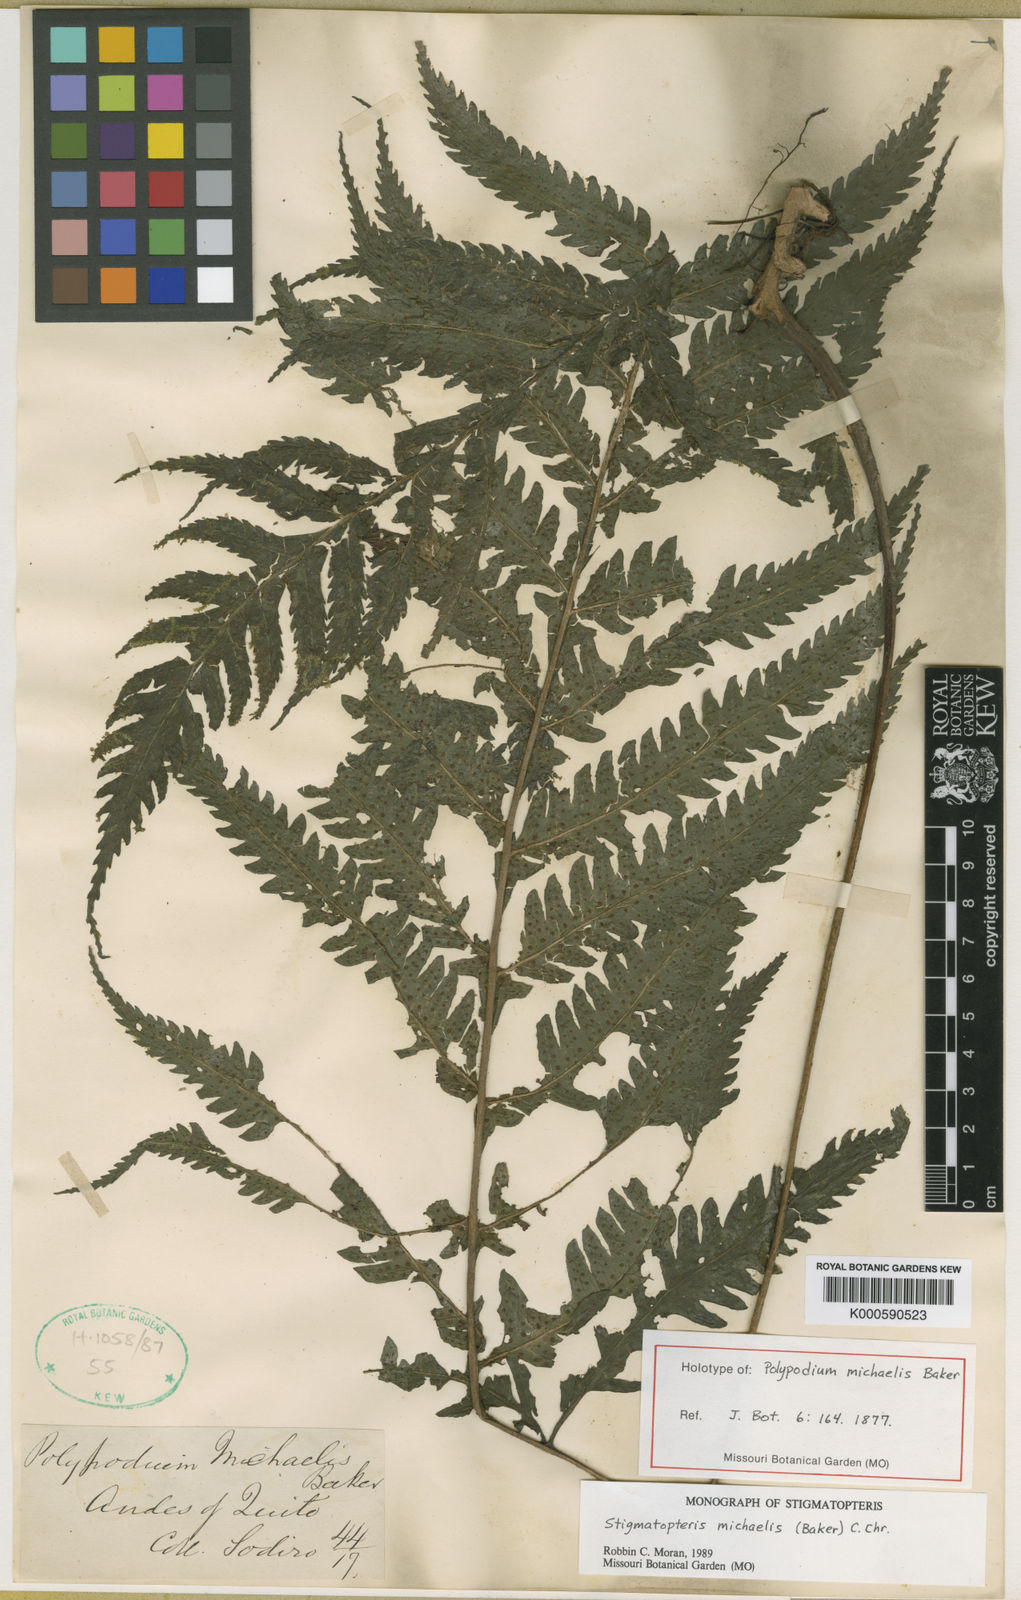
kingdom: Plantae
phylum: Tracheophyta
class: Polypodiopsida
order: Polypodiales
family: Dryopteridaceae
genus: Stigmatopteris
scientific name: Stigmatopteris michaelis
